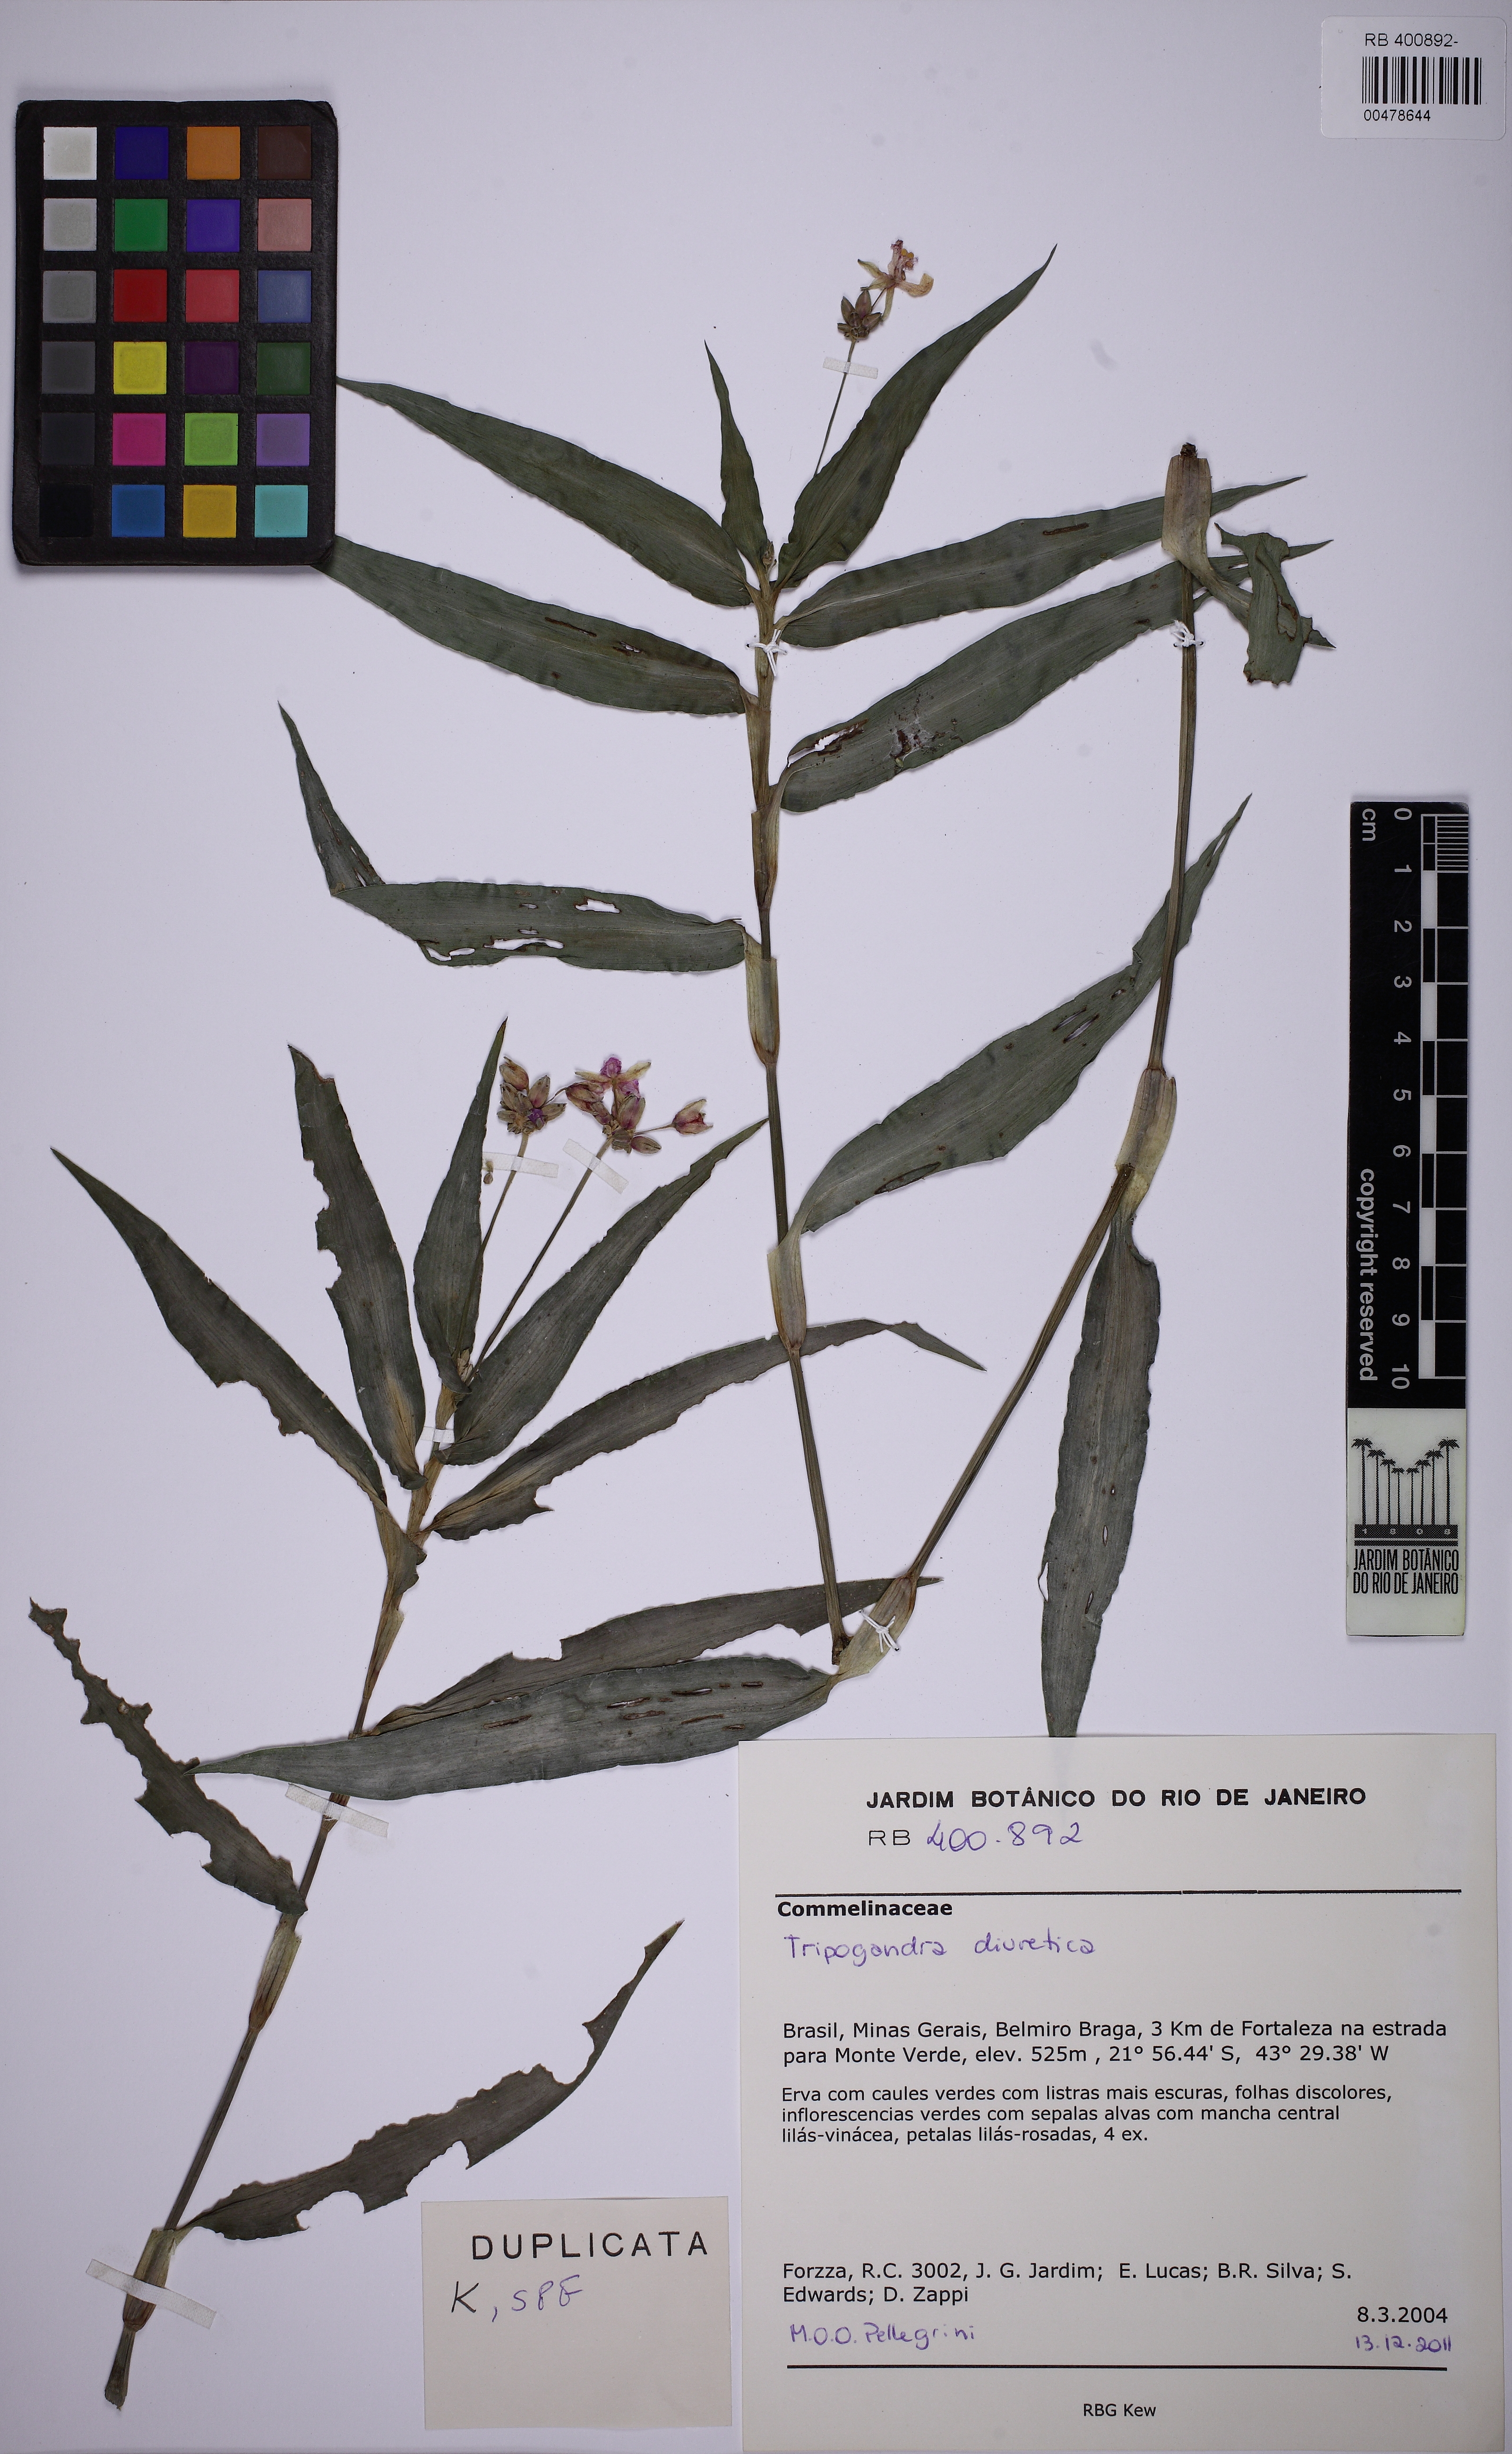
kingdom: Plantae
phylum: Tracheophyta
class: Liliopsida
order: Commelinales
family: Commelinaceae
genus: Callisia
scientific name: Callisia diuretica
